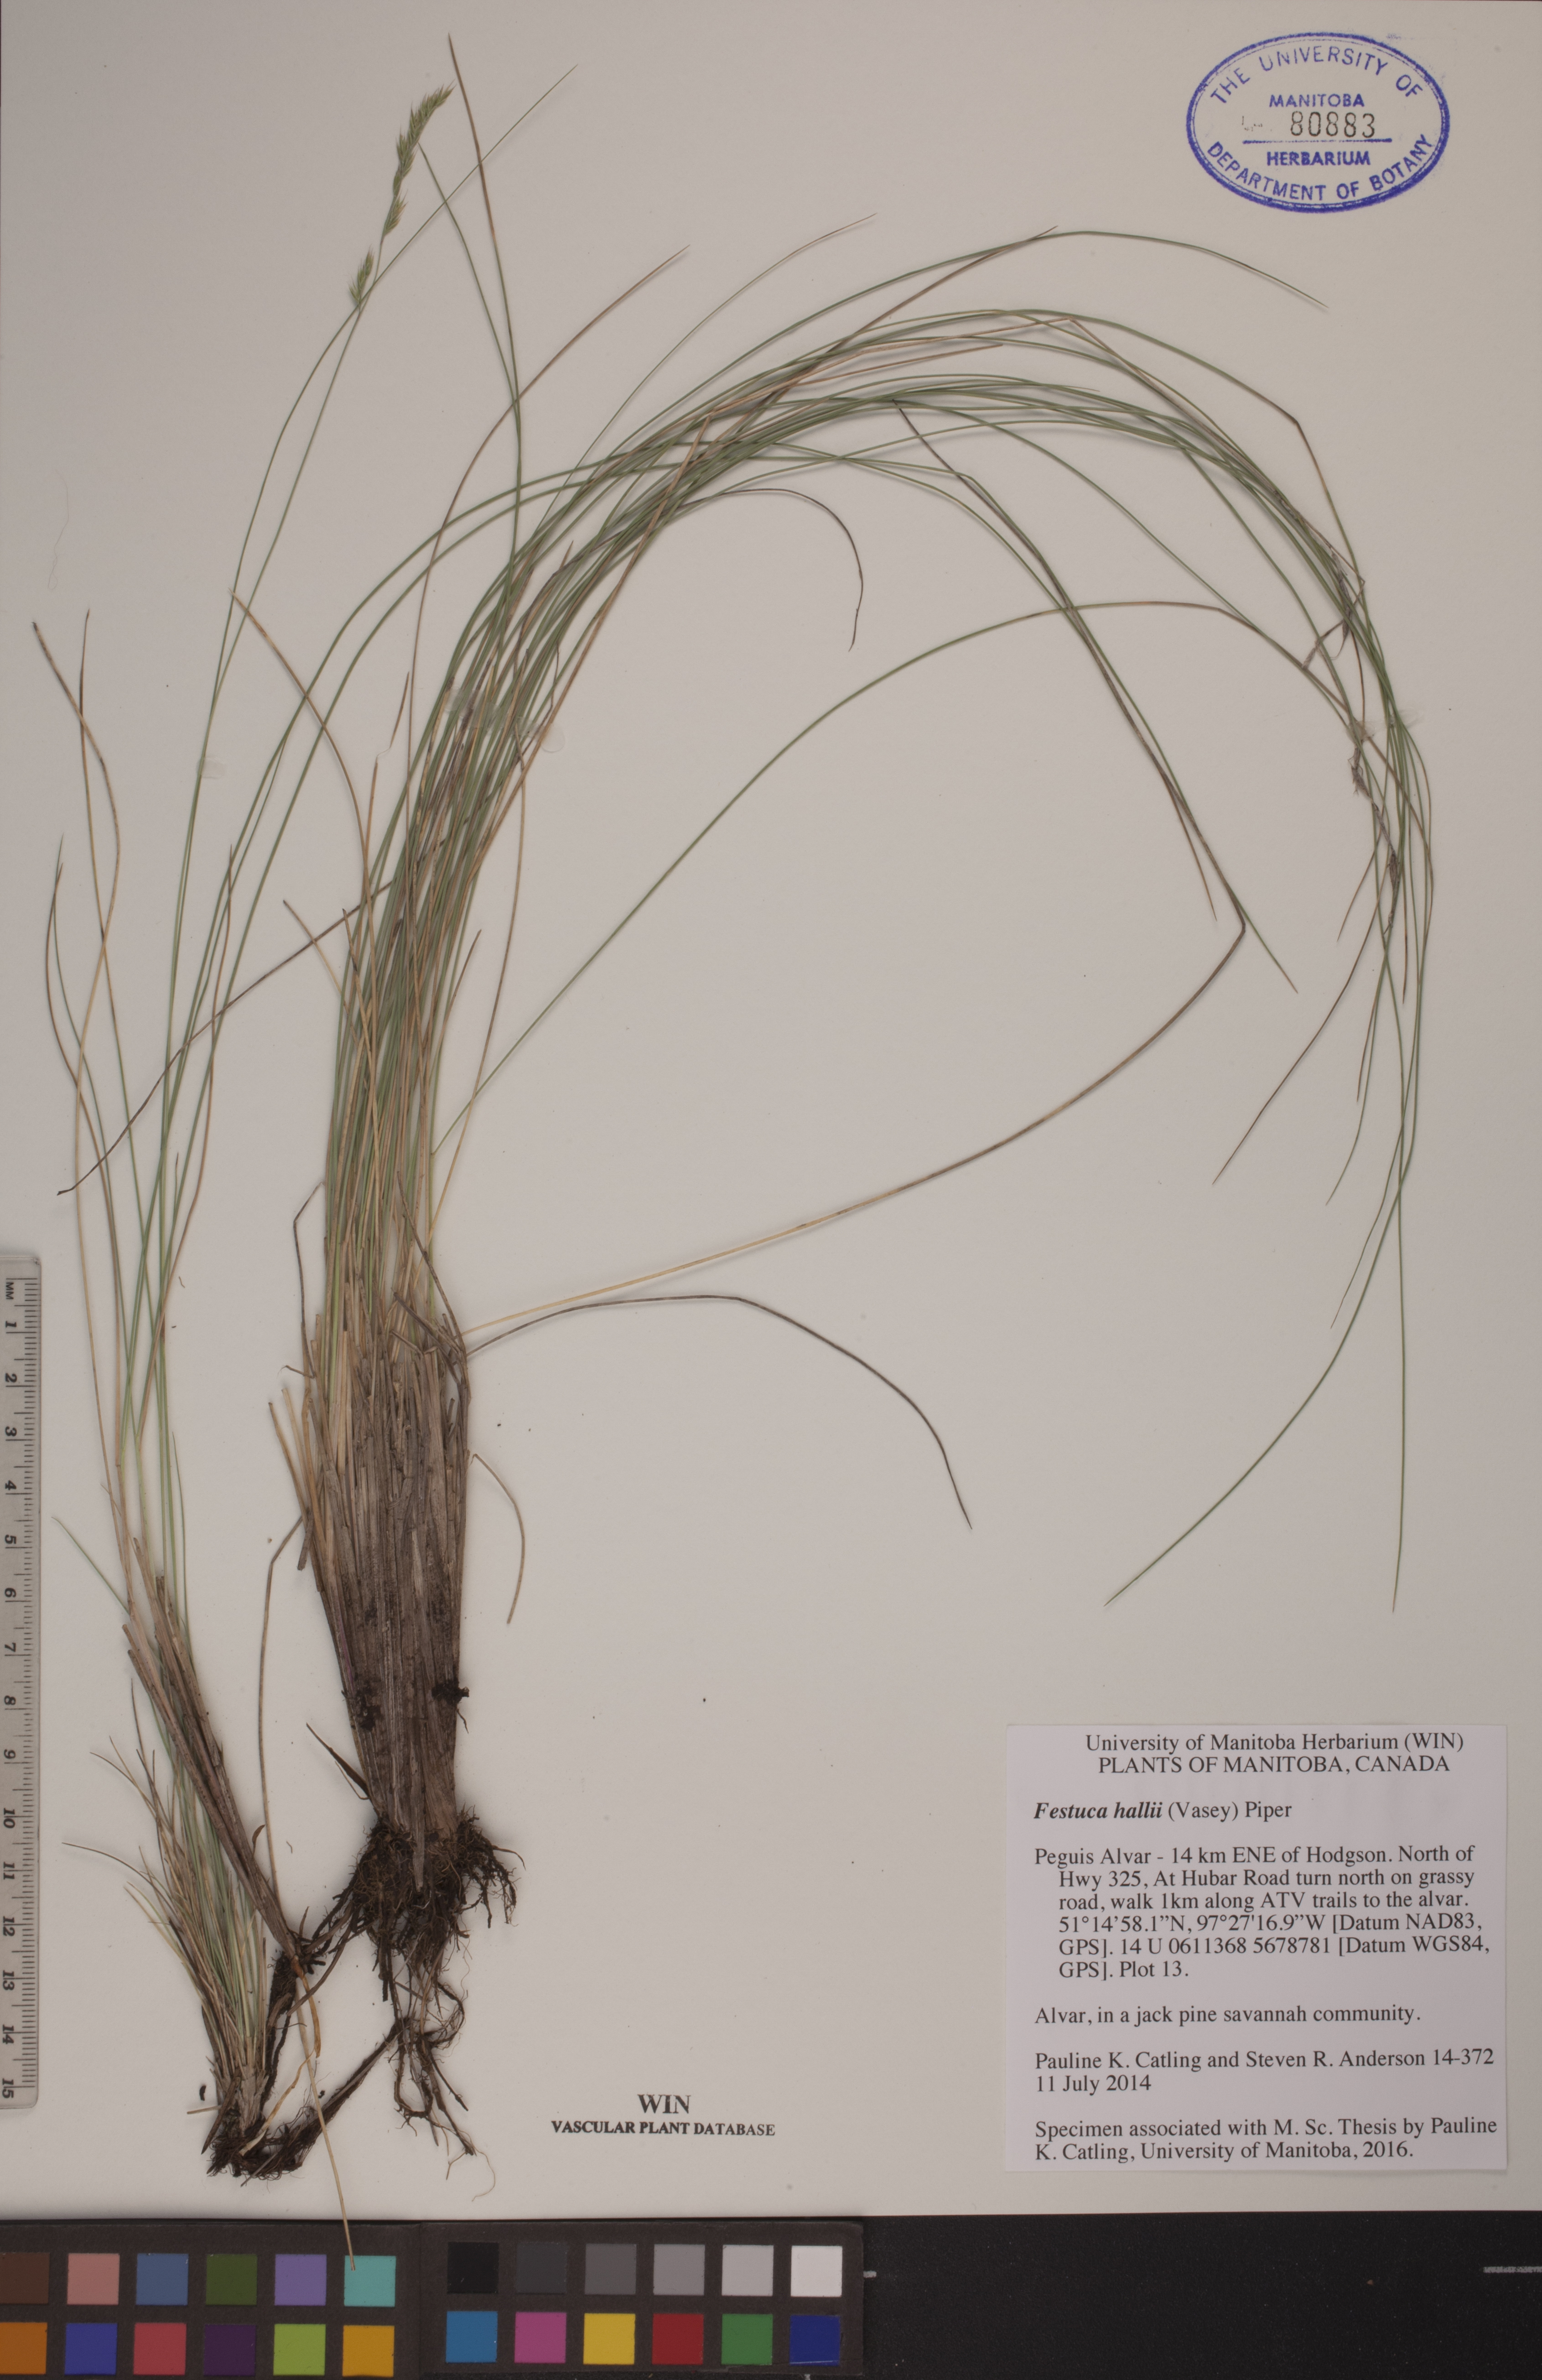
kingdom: Plantae
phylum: Tracheophyta
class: Liliopsida
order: Poales
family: Poaceae
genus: Festuca
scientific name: Festuca hallii
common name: Hall's fescue
